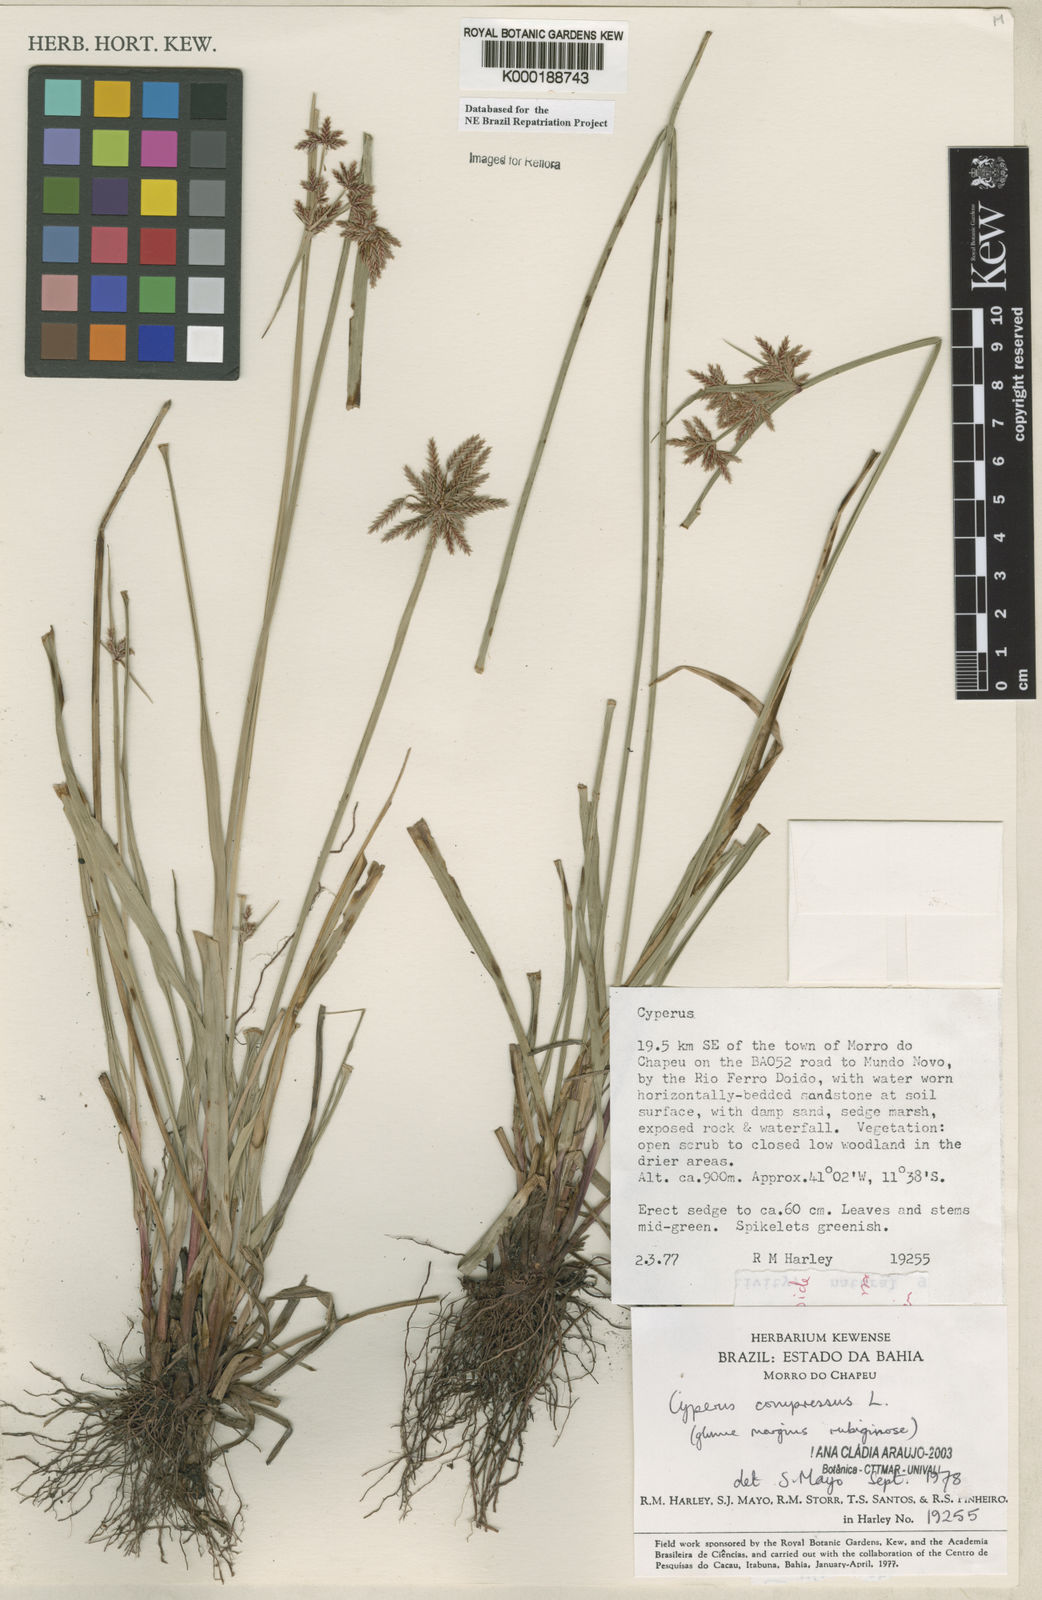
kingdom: Plantae
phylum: Tracheophyta
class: Liliopsida
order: Poales
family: Cyperaceae
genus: Cyperus
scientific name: Cyperus compressus
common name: Poorland flatsedge
